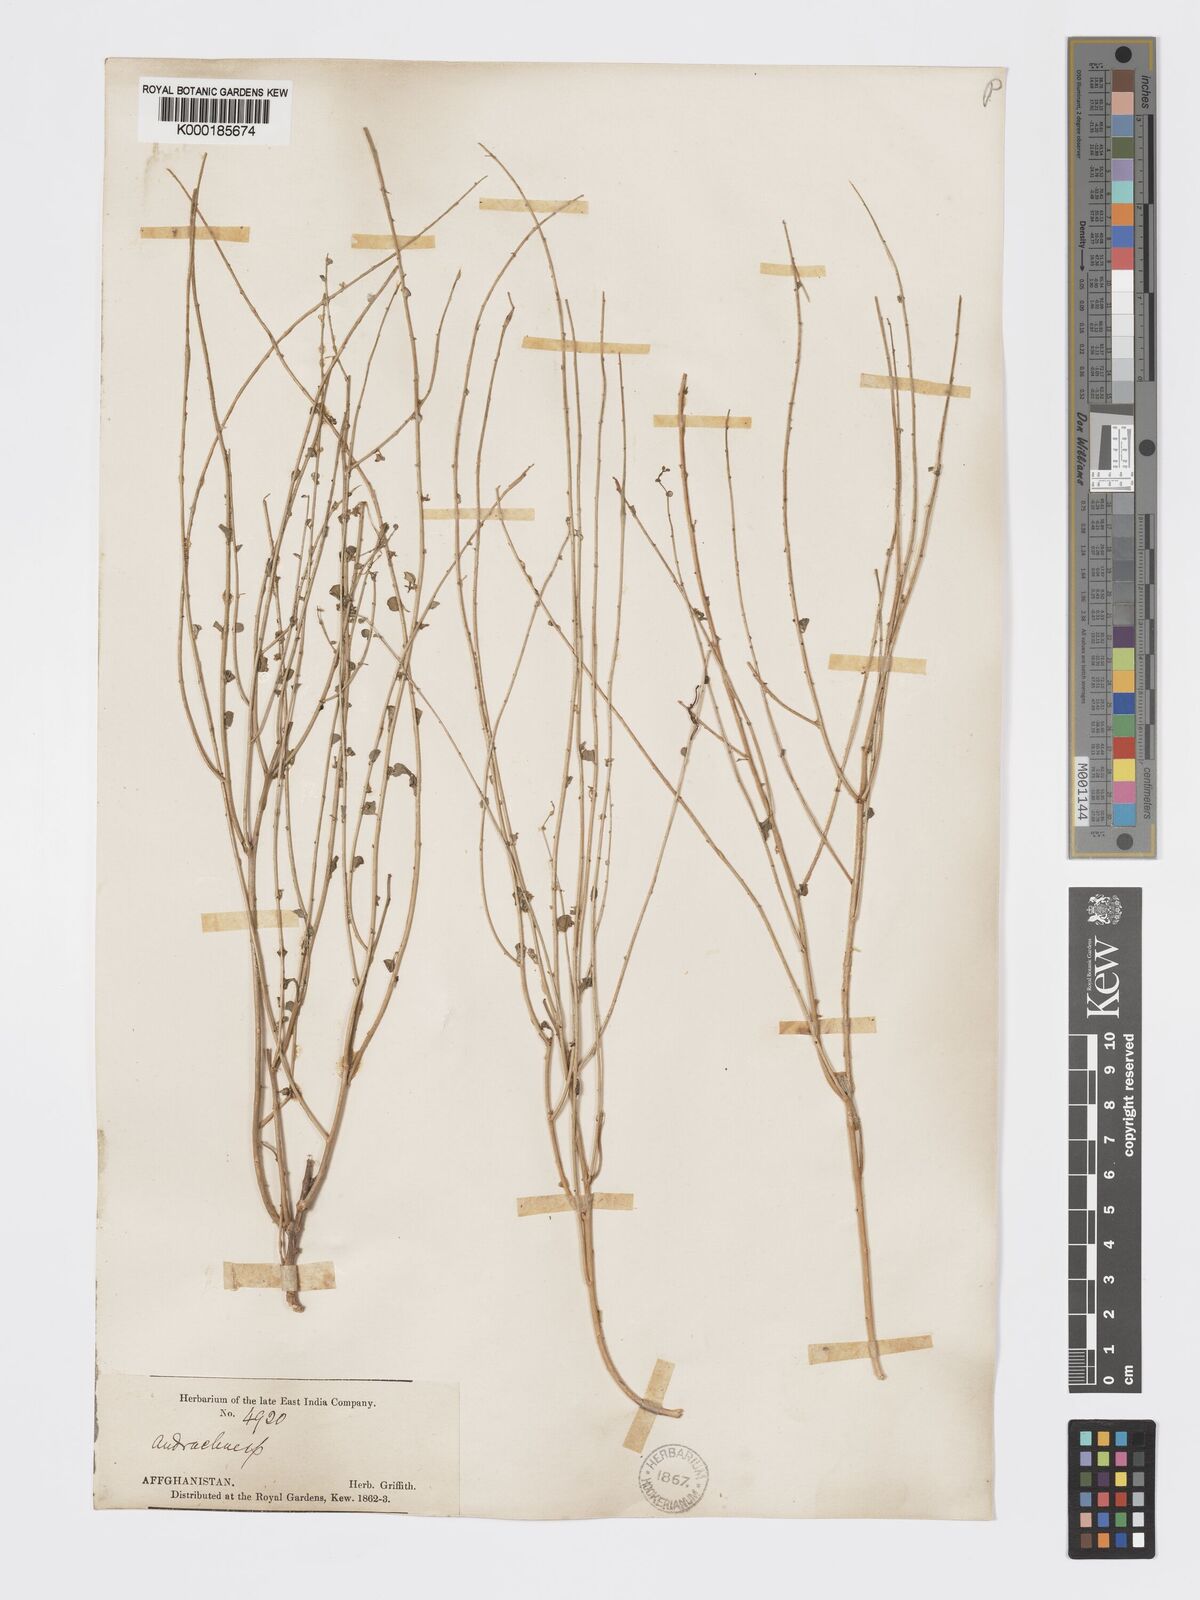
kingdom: Plantae
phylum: Tracheophyta
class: Magnoliopsida
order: Malpighiales
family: Phyllanthaceae
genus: Andrachne
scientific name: Andrachne telephioides
